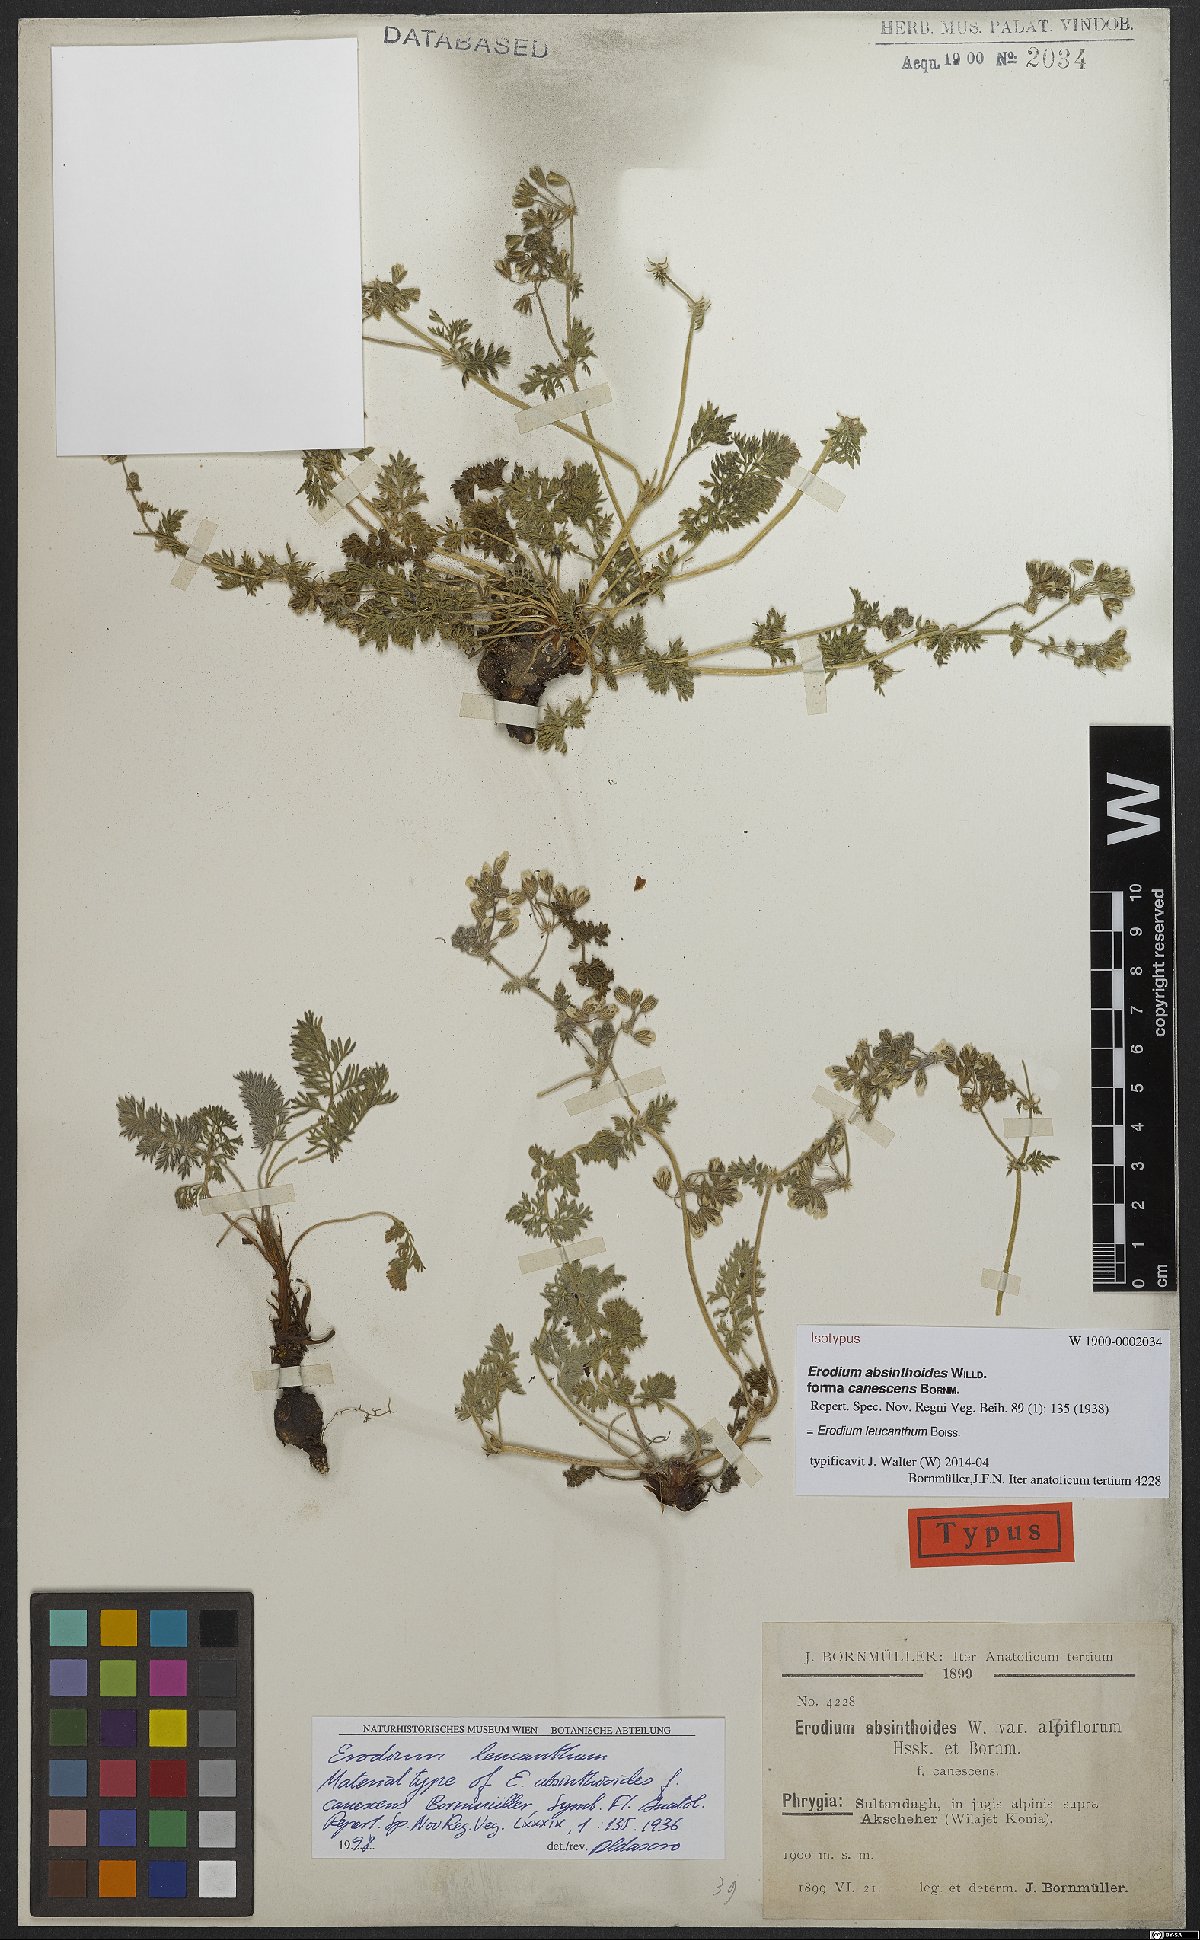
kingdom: Plantae
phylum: Tracheophyta
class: Magnoliopsida
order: Geraniales
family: Geraniaceae
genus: Erodium
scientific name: Erodium trichomanifolium
